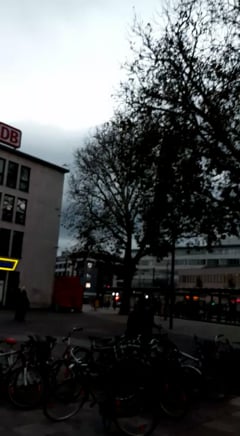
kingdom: Animalia
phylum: Chordata
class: Aves
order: Psittaciformes
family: Psittacidae
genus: Psittacula
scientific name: Psittacula krameri
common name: Rose-ringed parakeet
